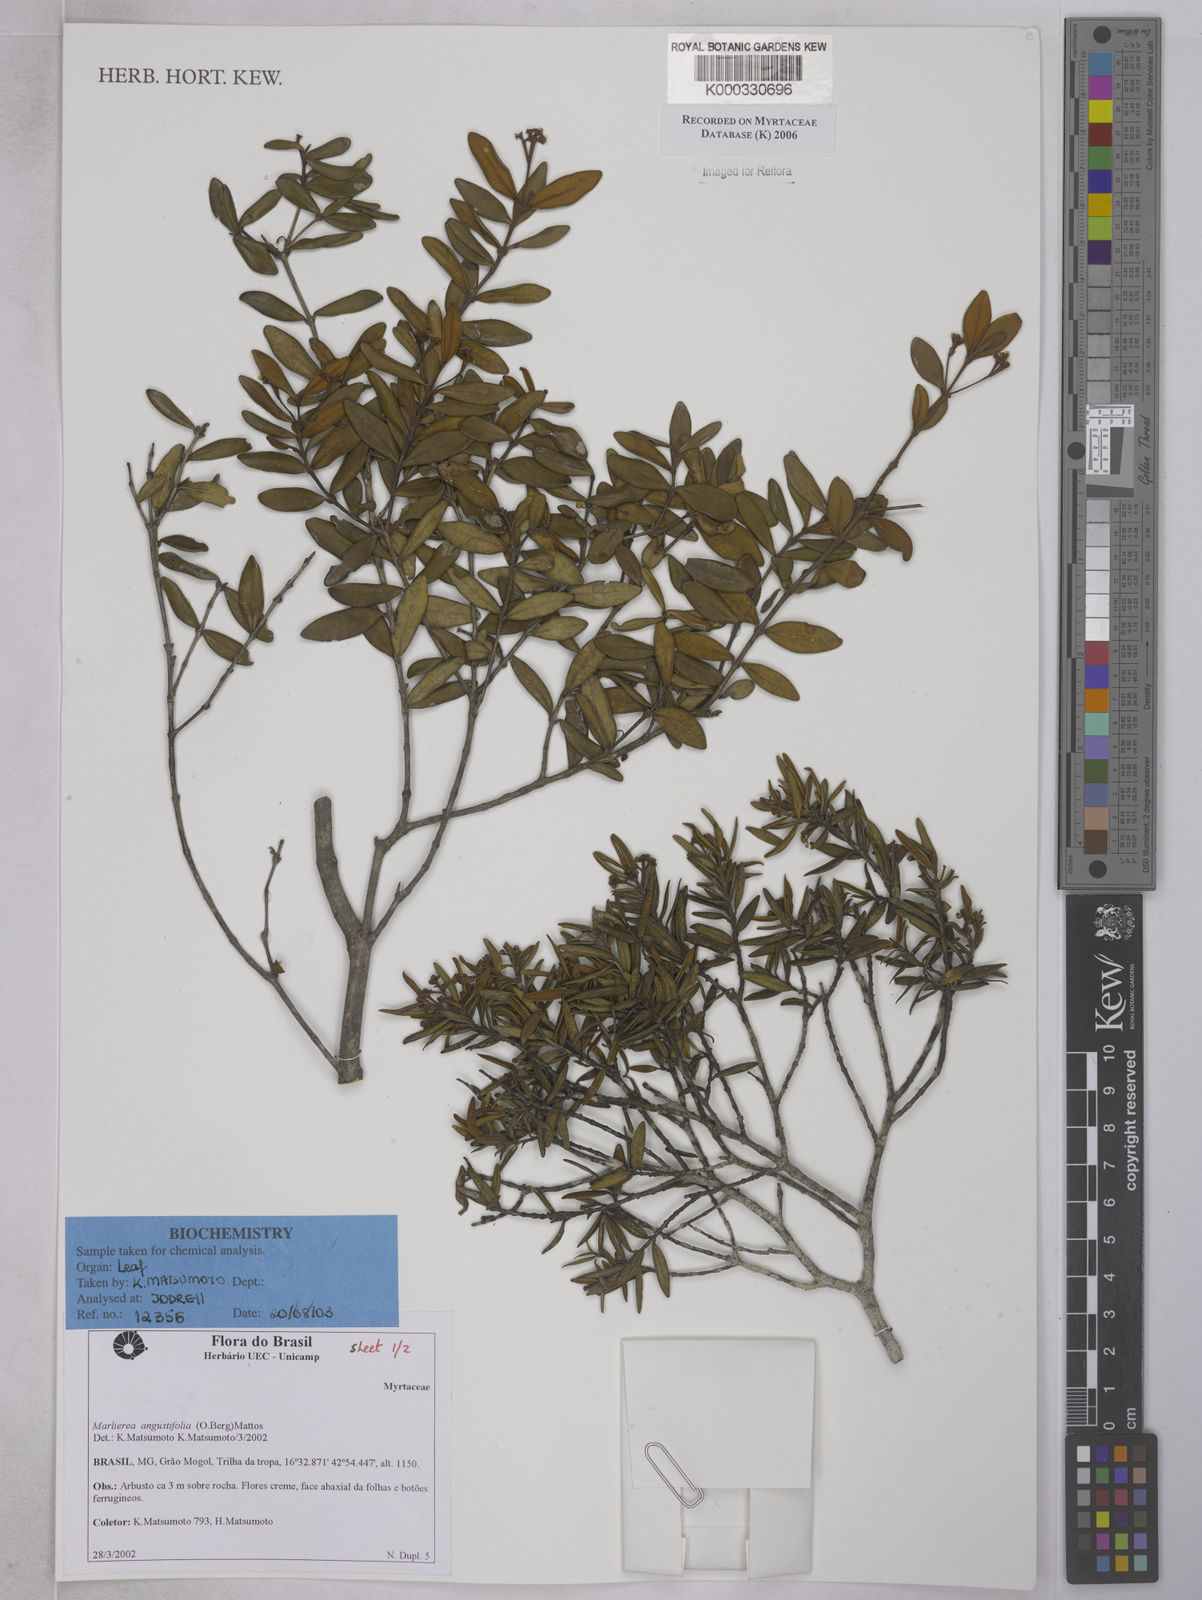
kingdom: Plantae
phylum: Tracheophyta
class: Magnoliopsida
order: Myrtales
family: Myrtaceae
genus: Myrcia
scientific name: Myrcia lenheirensis
